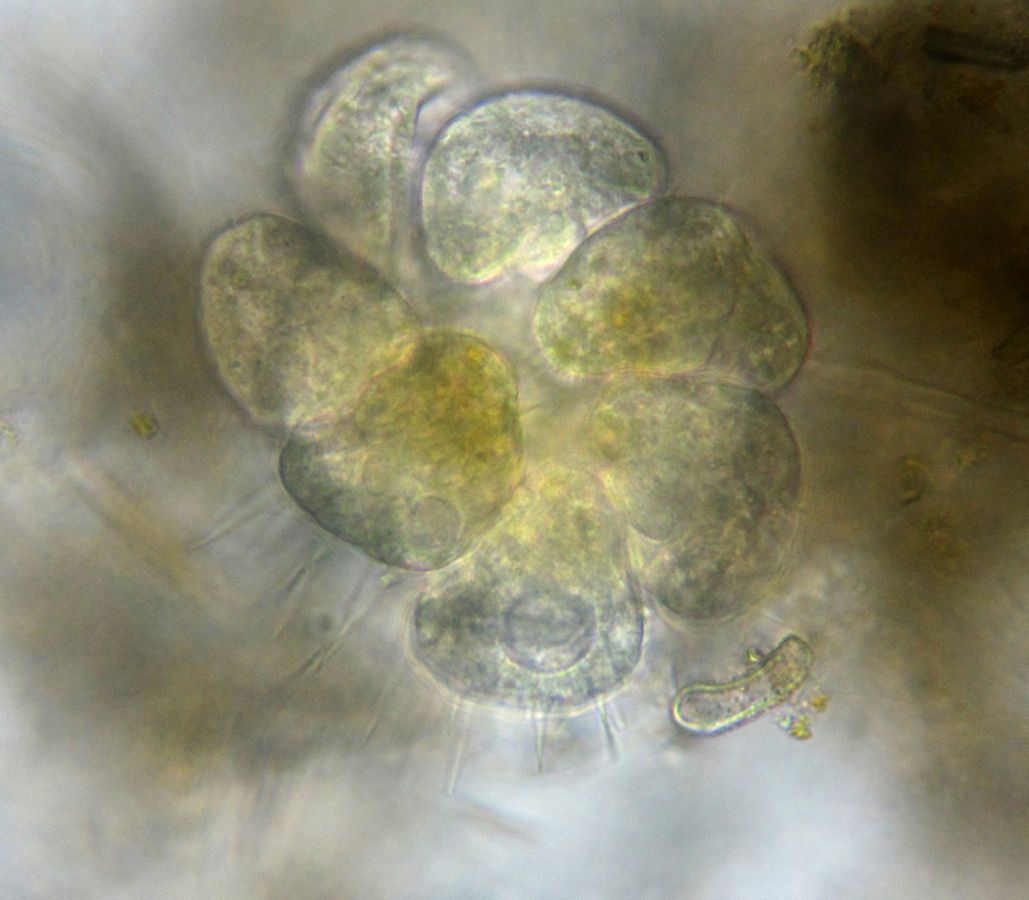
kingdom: Chromista
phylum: Ciliophora
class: Phyllopharyngea
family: Ephelotidae
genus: Ephelota
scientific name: Ephelota gemmipara
